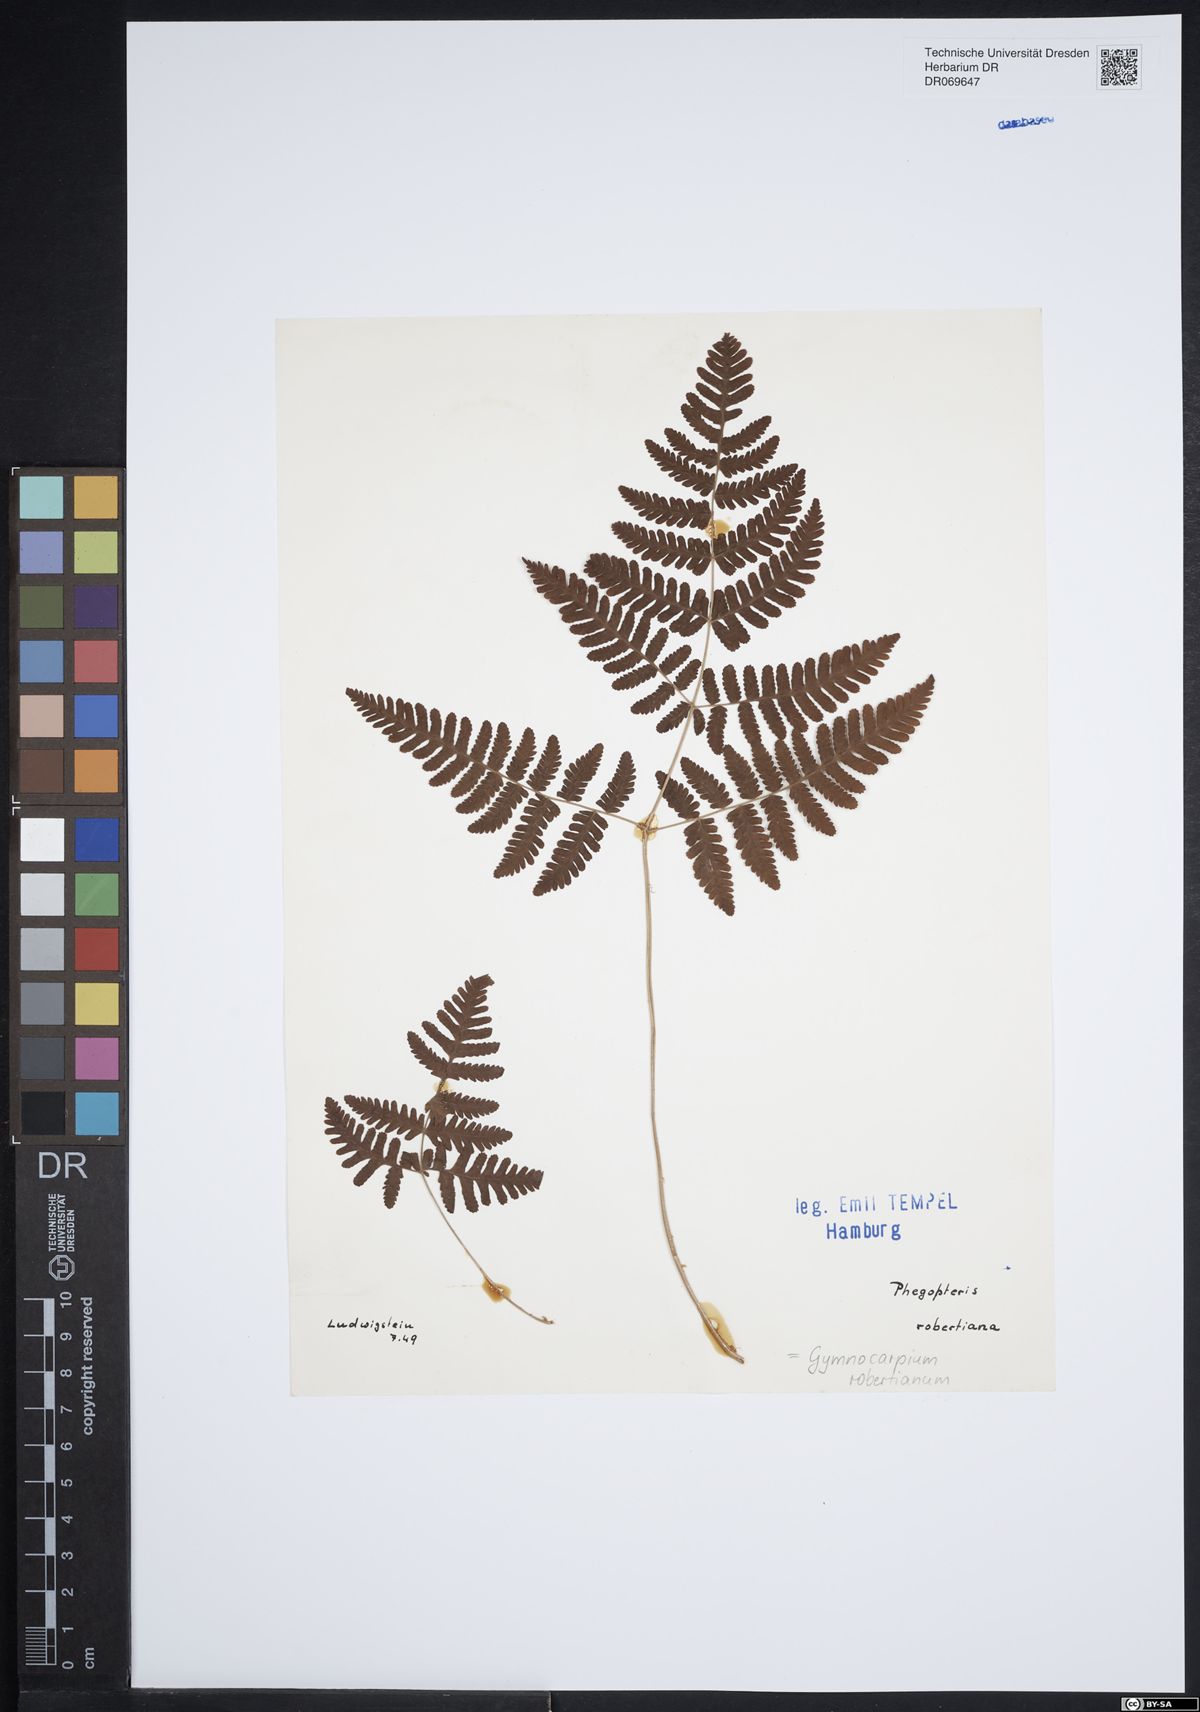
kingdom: Plantae
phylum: Tracheophyta
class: Polypodiopsida
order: Polypodiales
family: Cystopteridaceae
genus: Gymnocarpium
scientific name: Gymnocarpium robertianum
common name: Limestone fern
